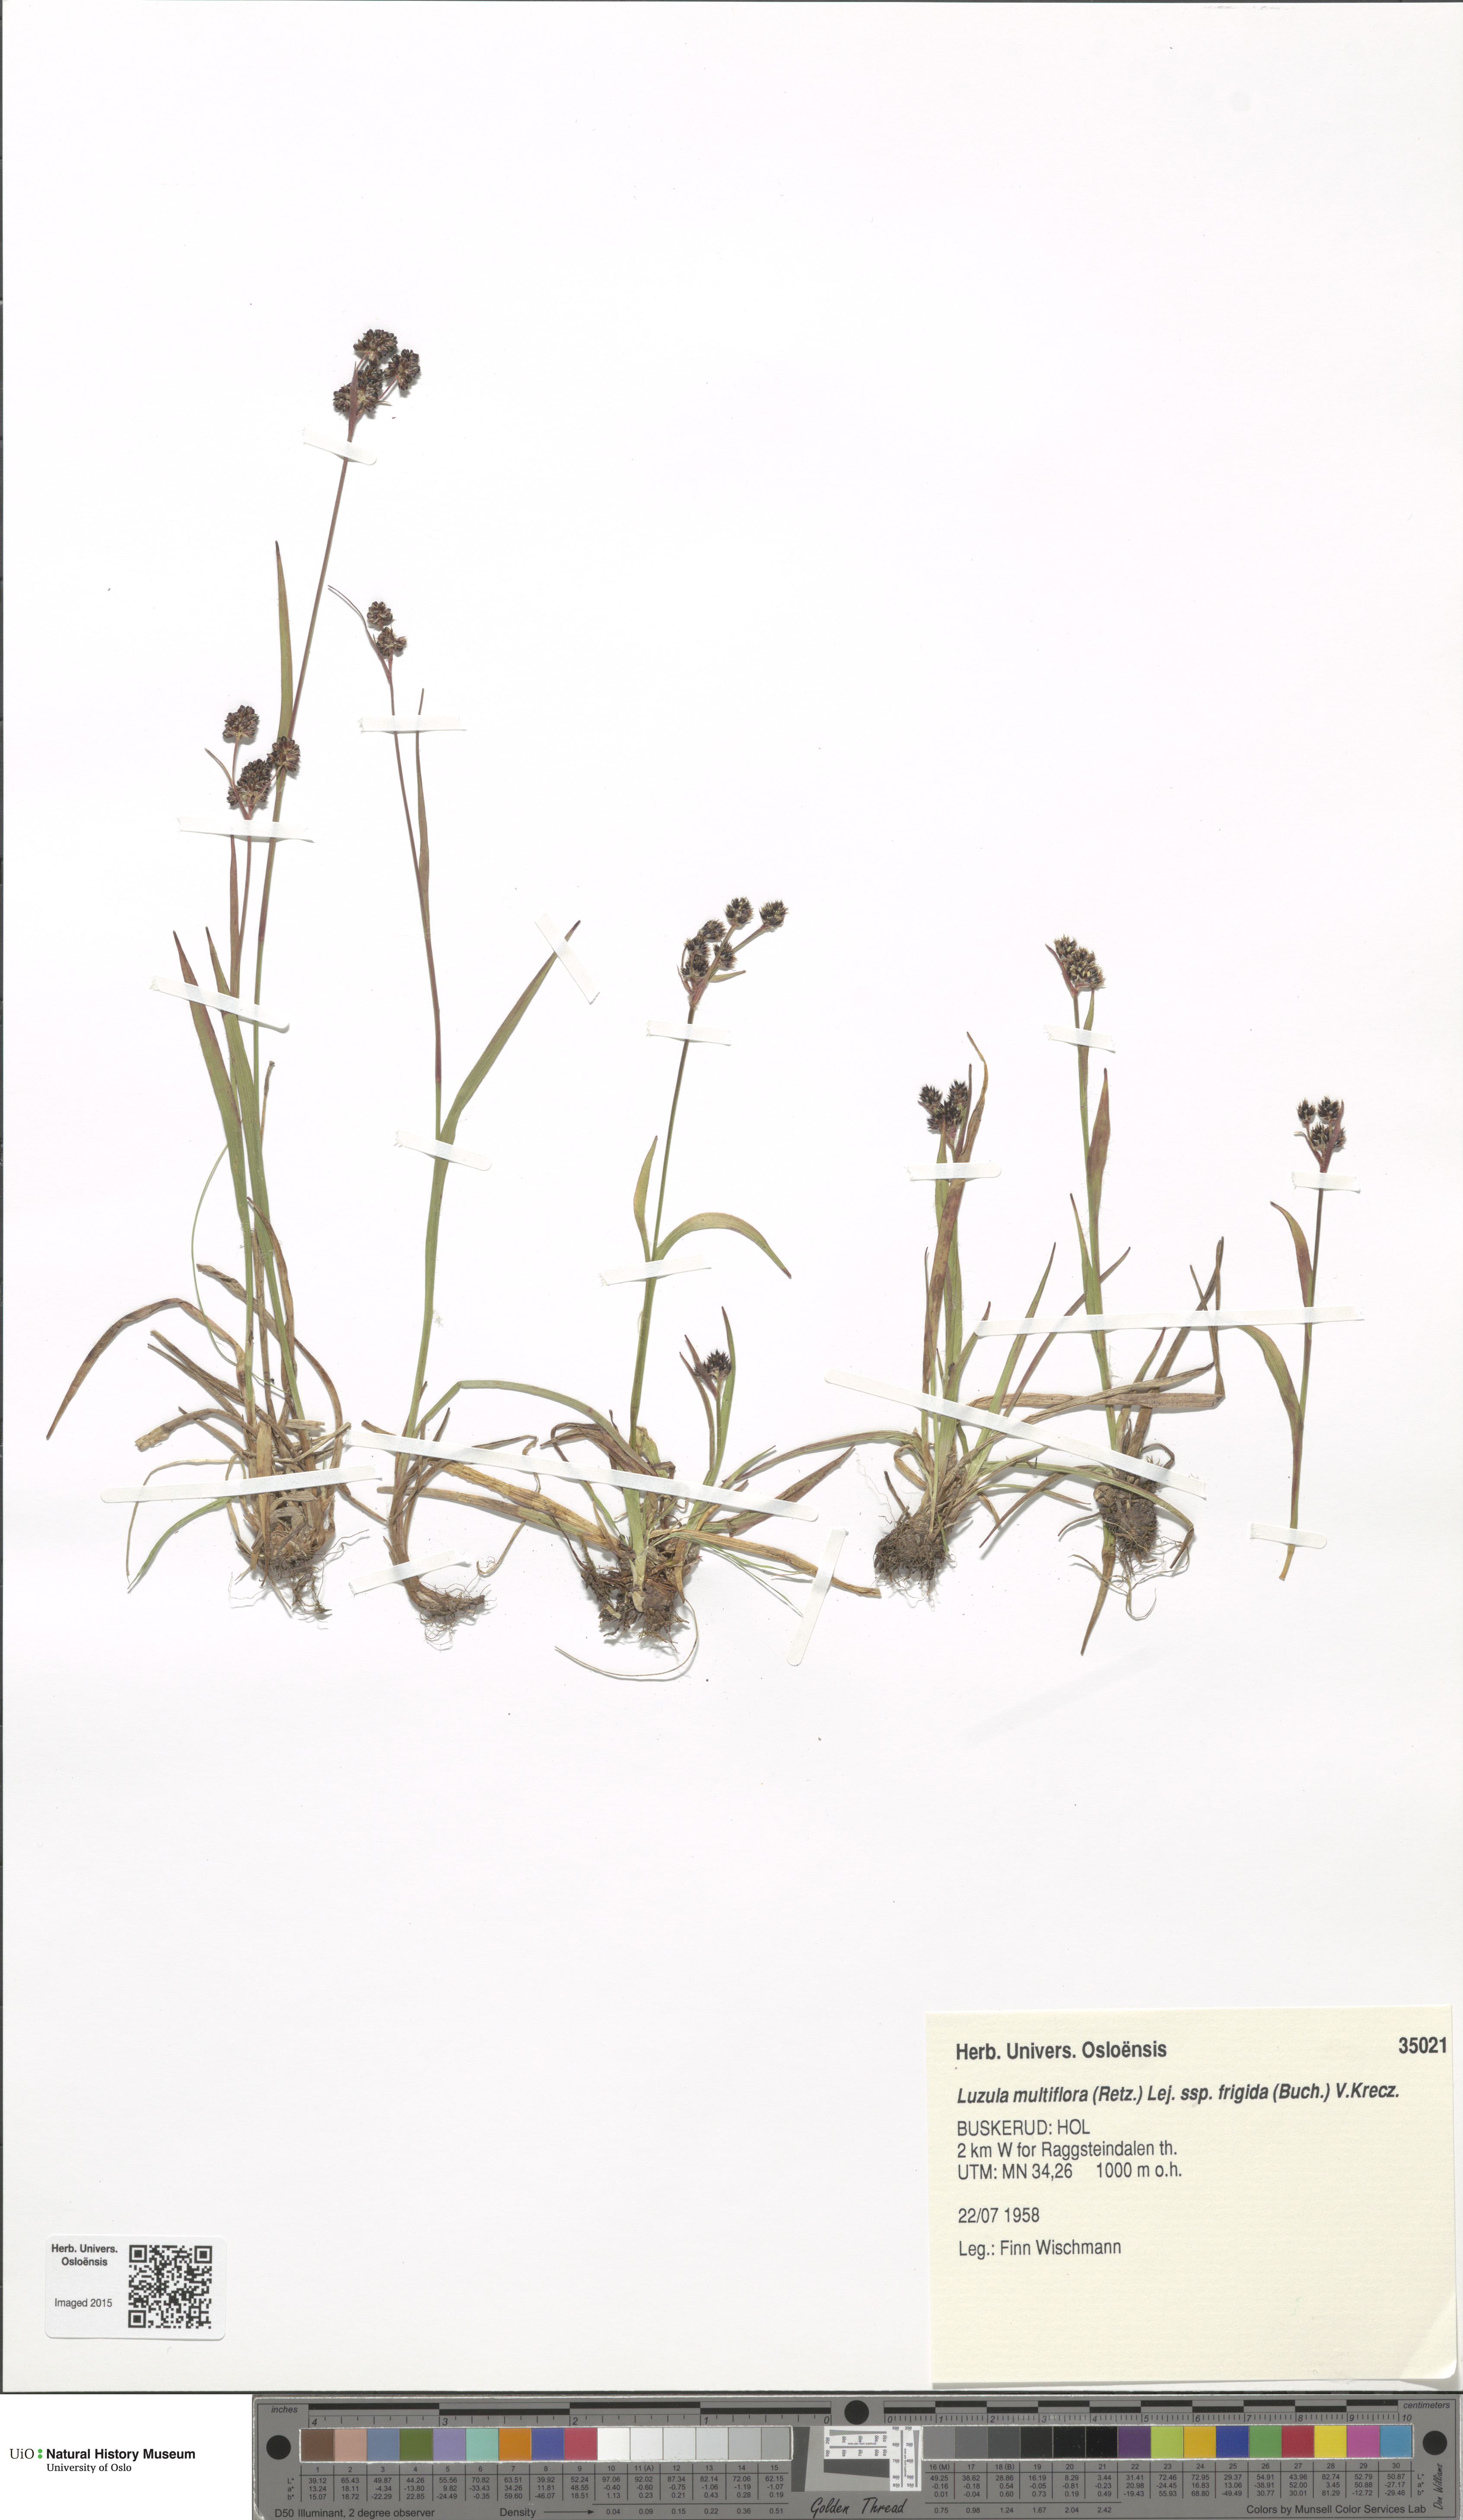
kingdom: Plantae
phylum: Tracheophyta
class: Liliopsida
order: Poales
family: Juncaceae
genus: Luzula
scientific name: Luzula multiflora
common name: Heath wood-rush
